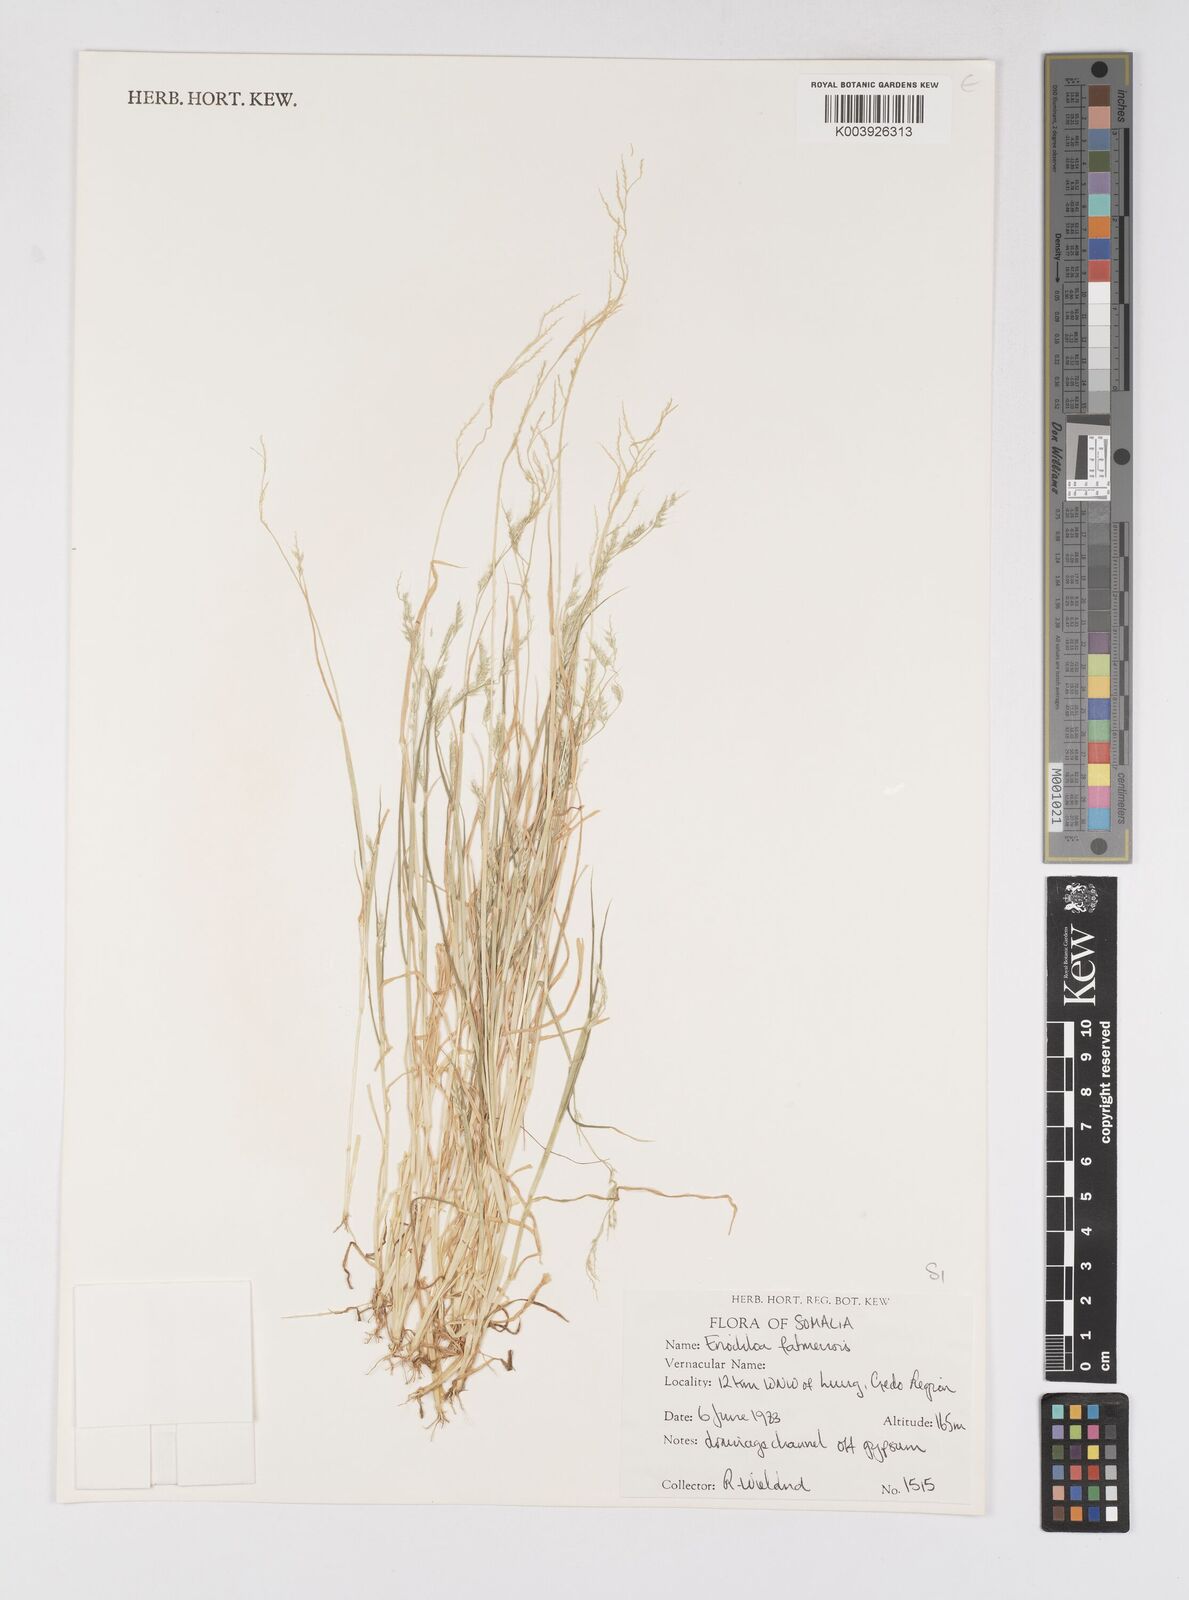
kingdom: Plantae
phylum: Tracheophyta
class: Liliopsida
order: Poales
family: Poaceae
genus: Eriochloa
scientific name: Eriochloa barbatus
